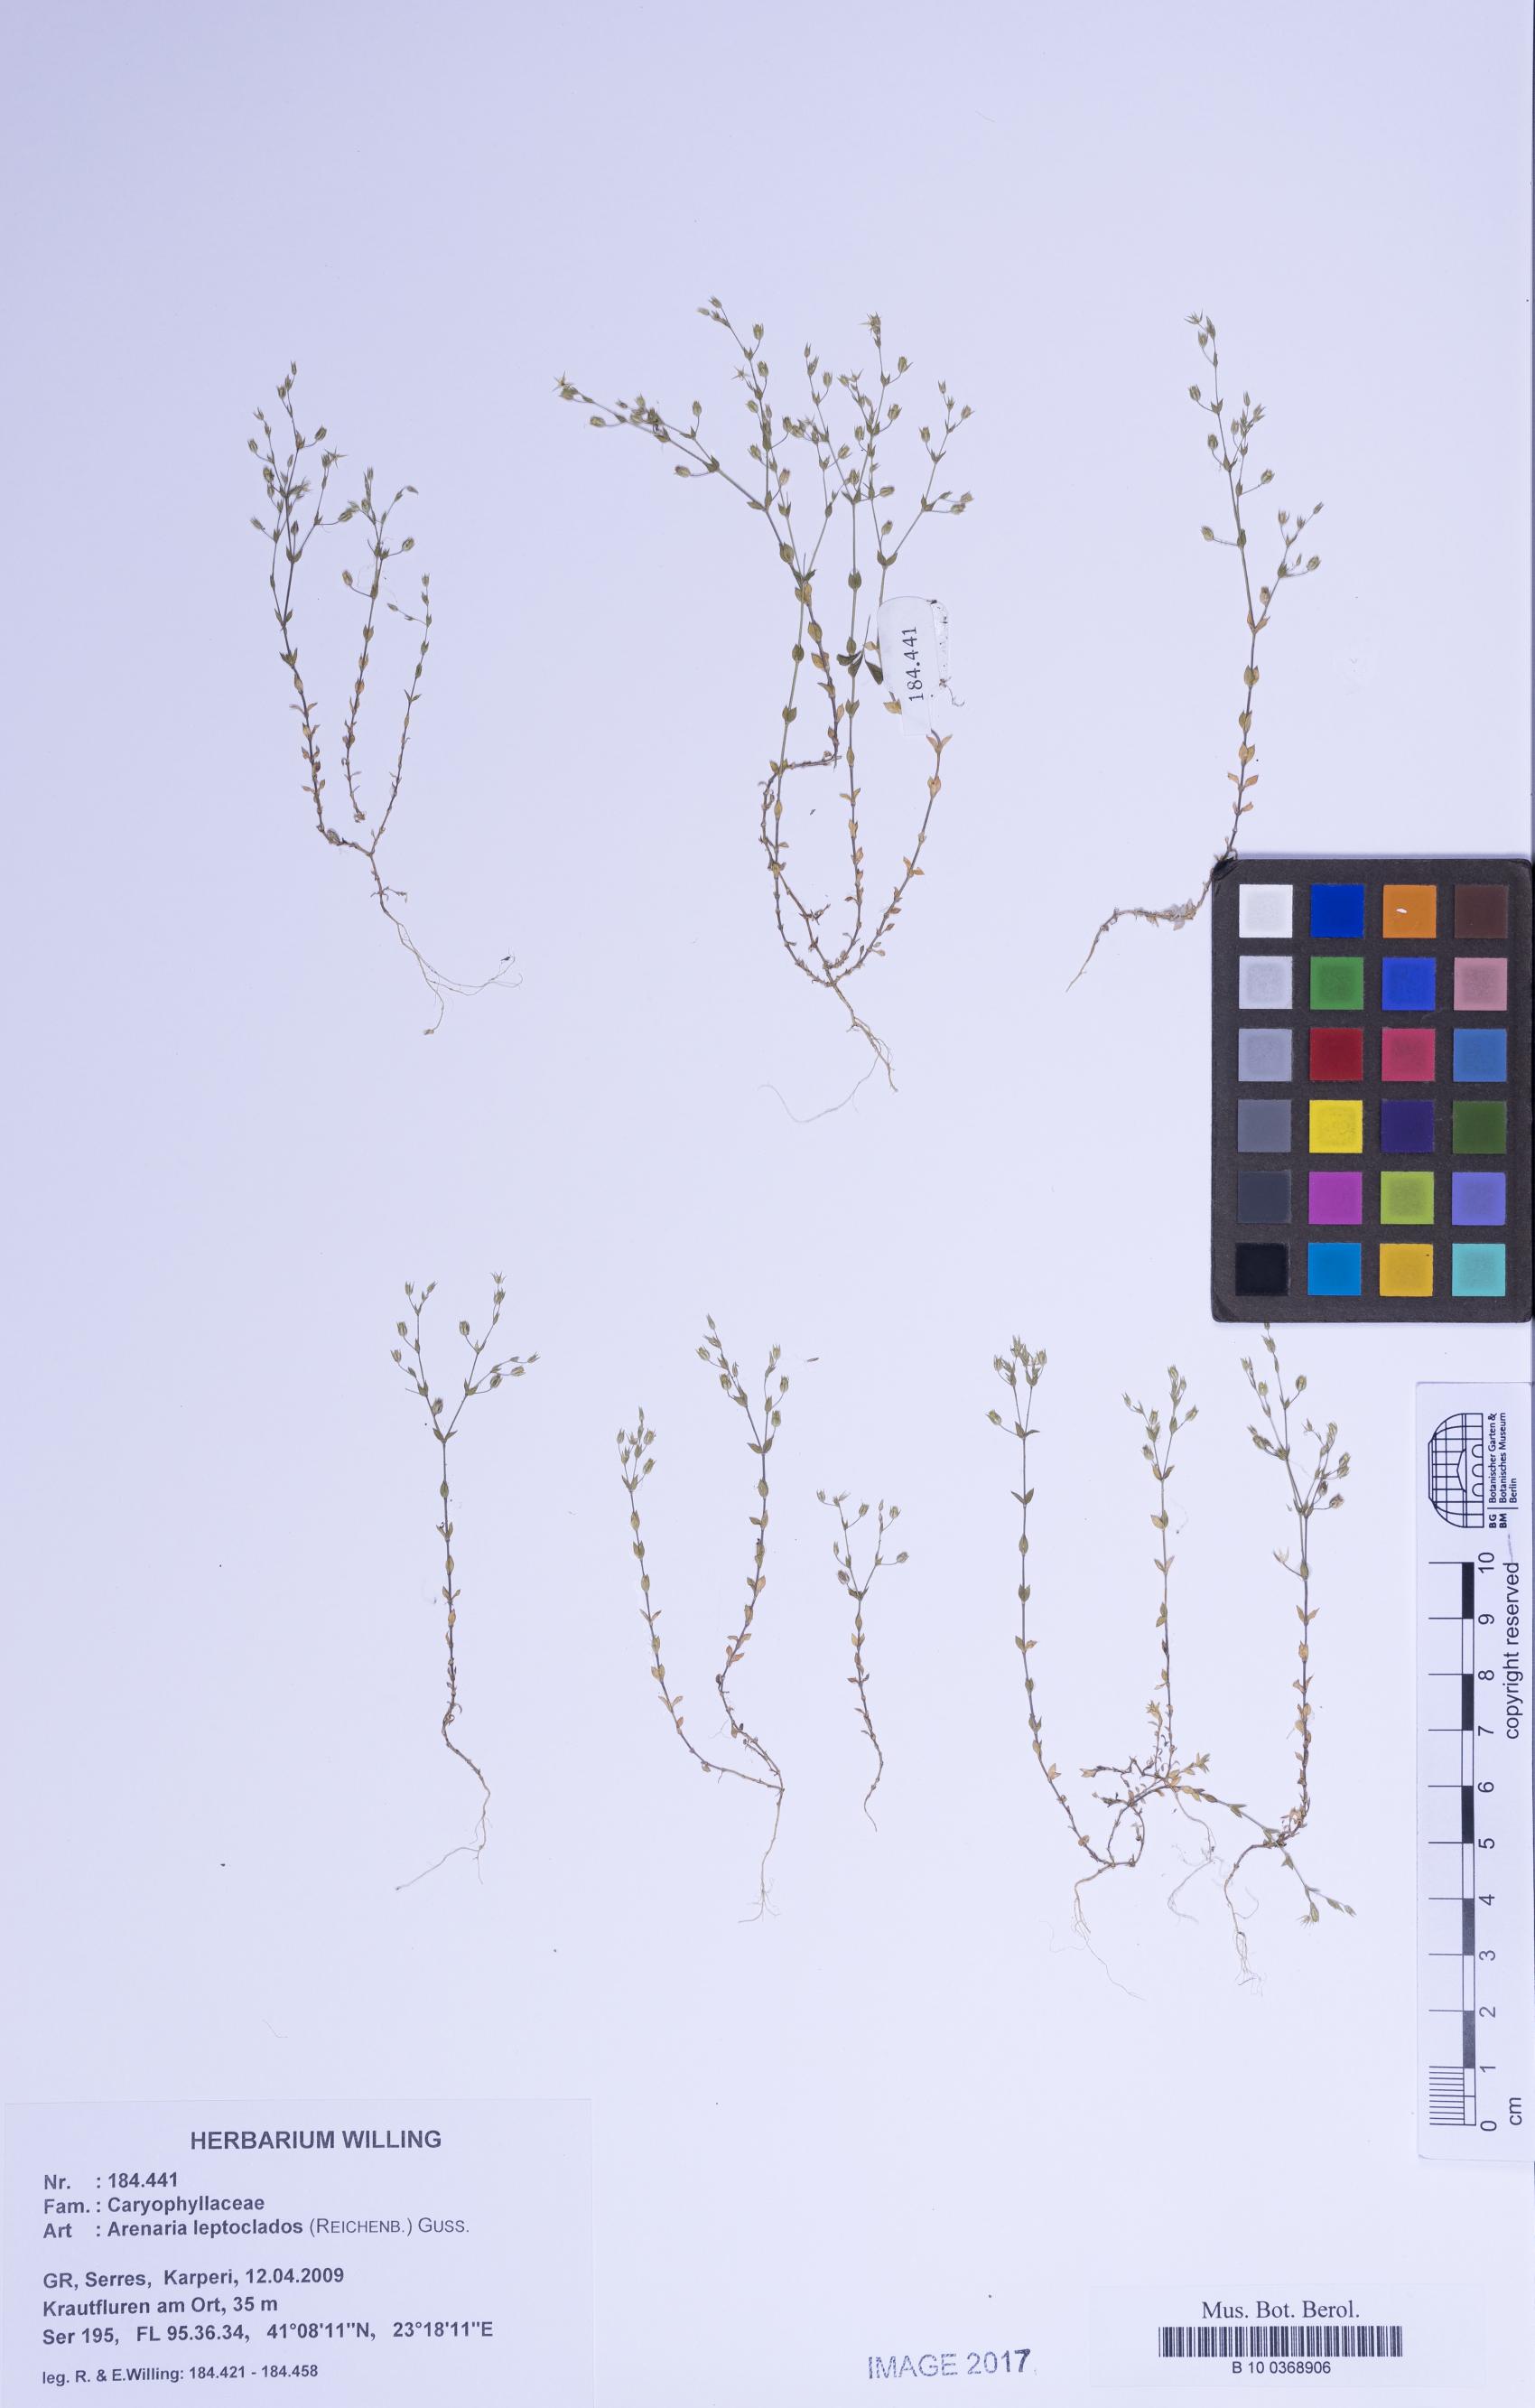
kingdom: Plantae
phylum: Tracheophyta
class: Magnoliopsida
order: Caryophyllales
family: Caryophyllaceae
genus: Arenaria
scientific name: Arenaria leptoclados
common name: Thyme-leaved sandwort
